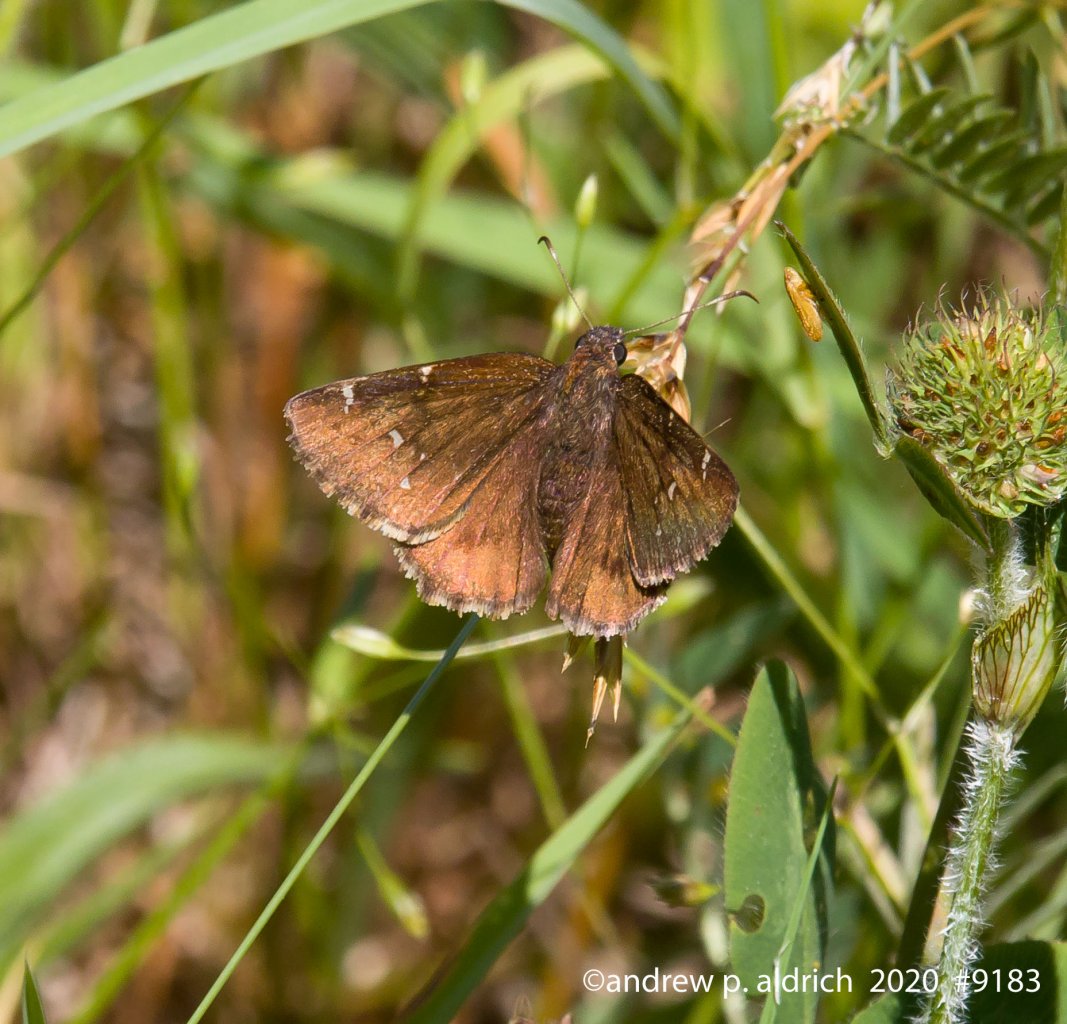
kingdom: Animalia
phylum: Arthropoda
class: Insecta
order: Lepidoptera
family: Hesperiidae
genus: Autochton
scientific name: Autochton
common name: Northern Cloudywing
